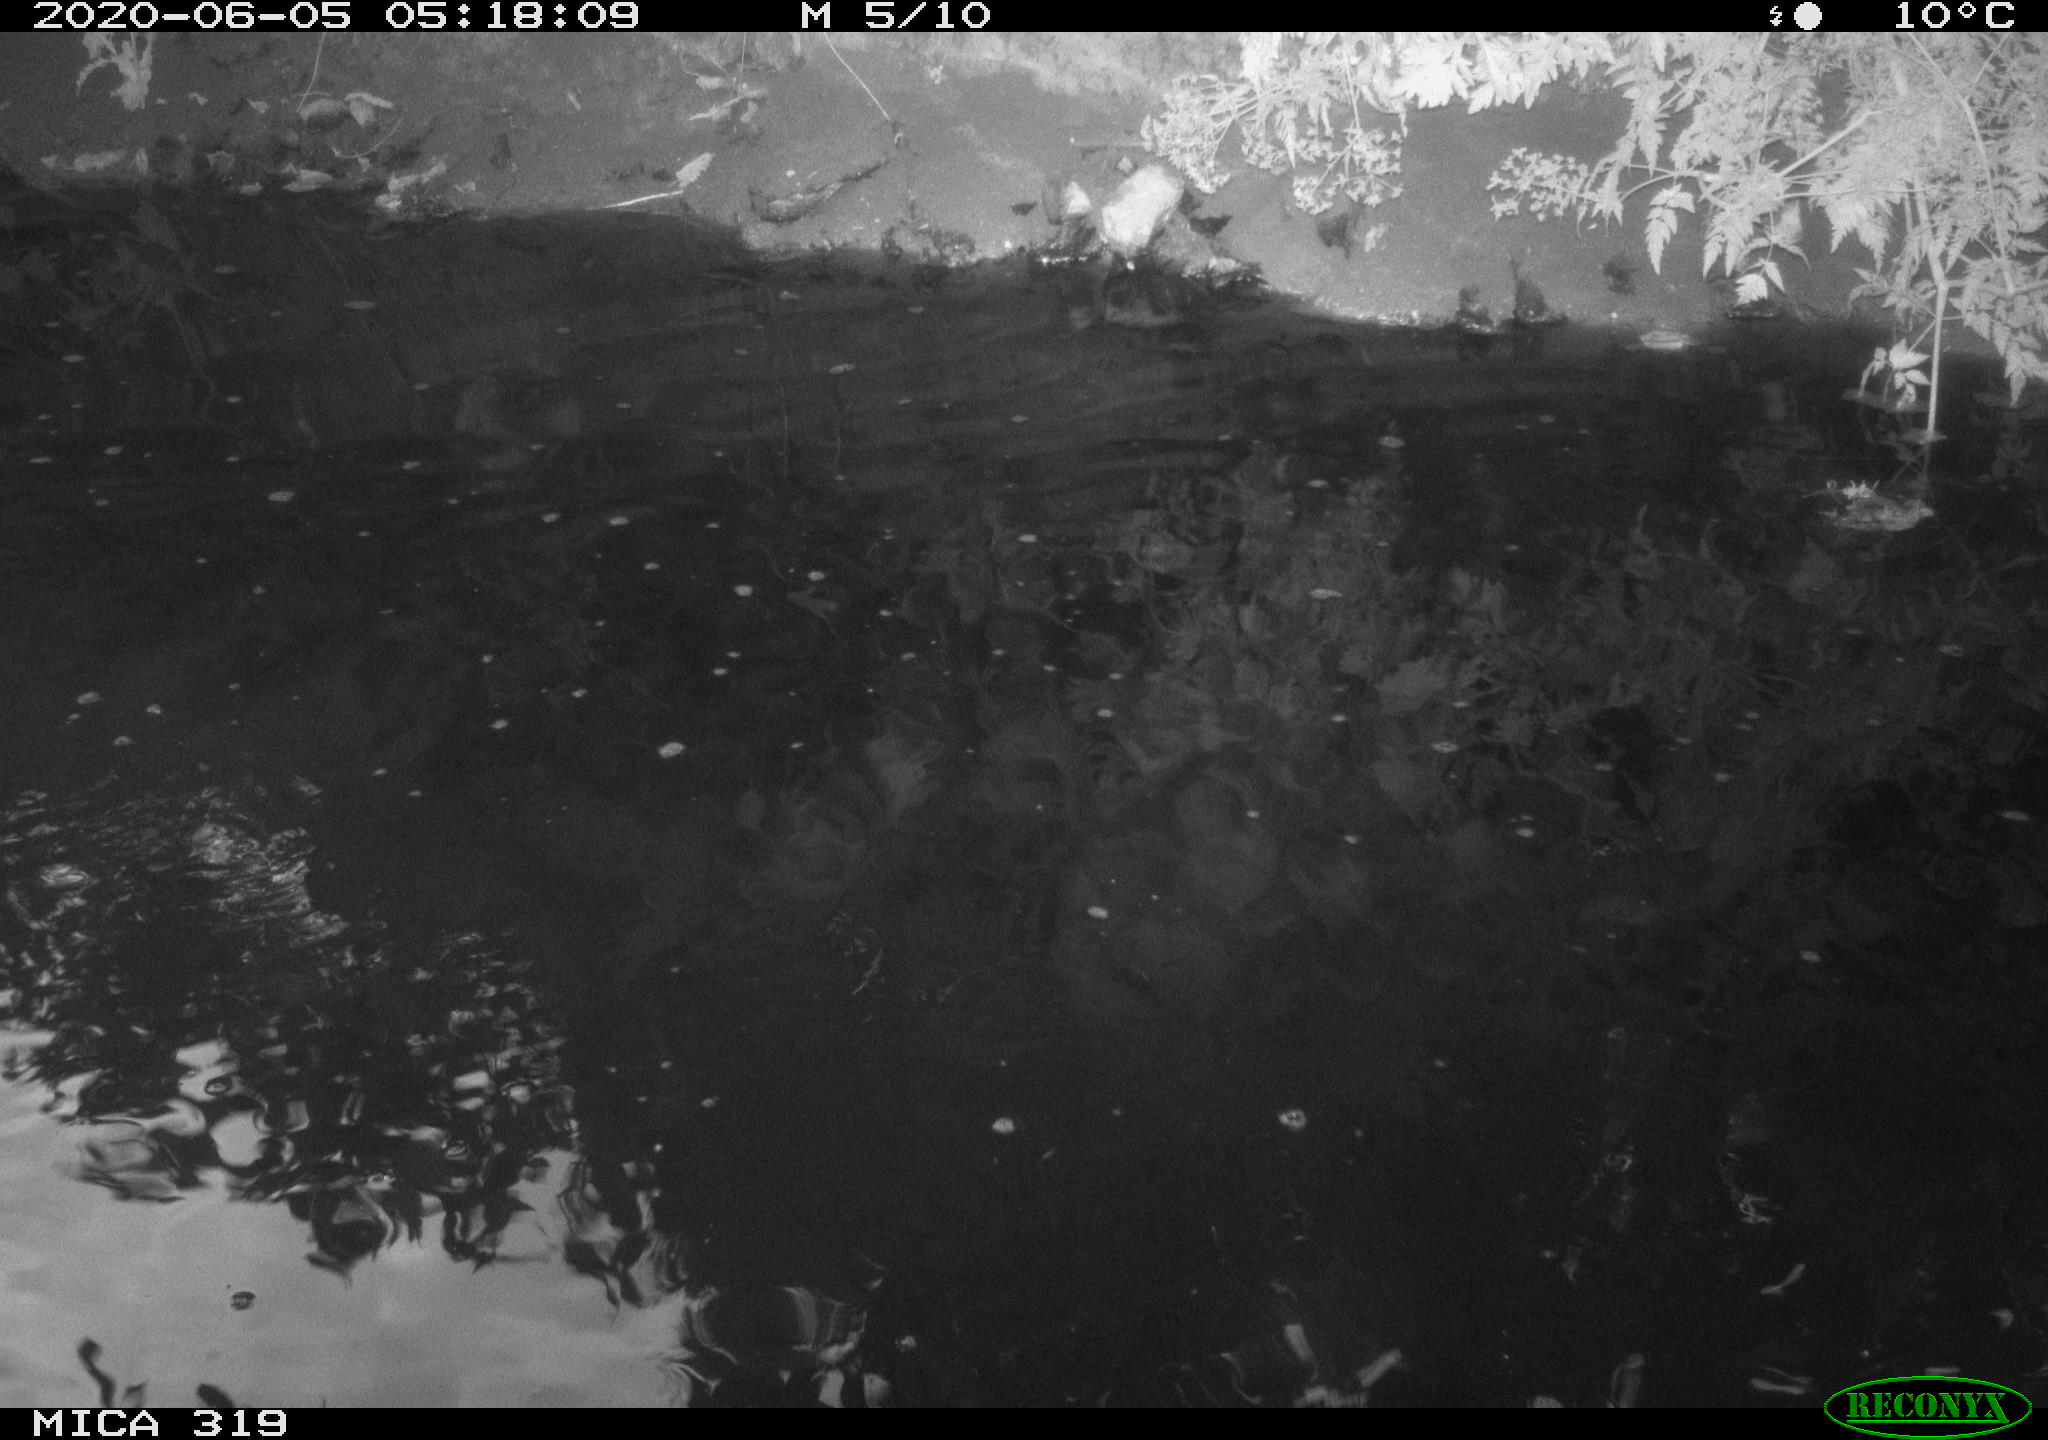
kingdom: Animalia
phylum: Chordata
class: Aves
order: Anseriformes
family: Anatidae
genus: Anas
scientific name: Anas platyrhynchos
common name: Mallard
